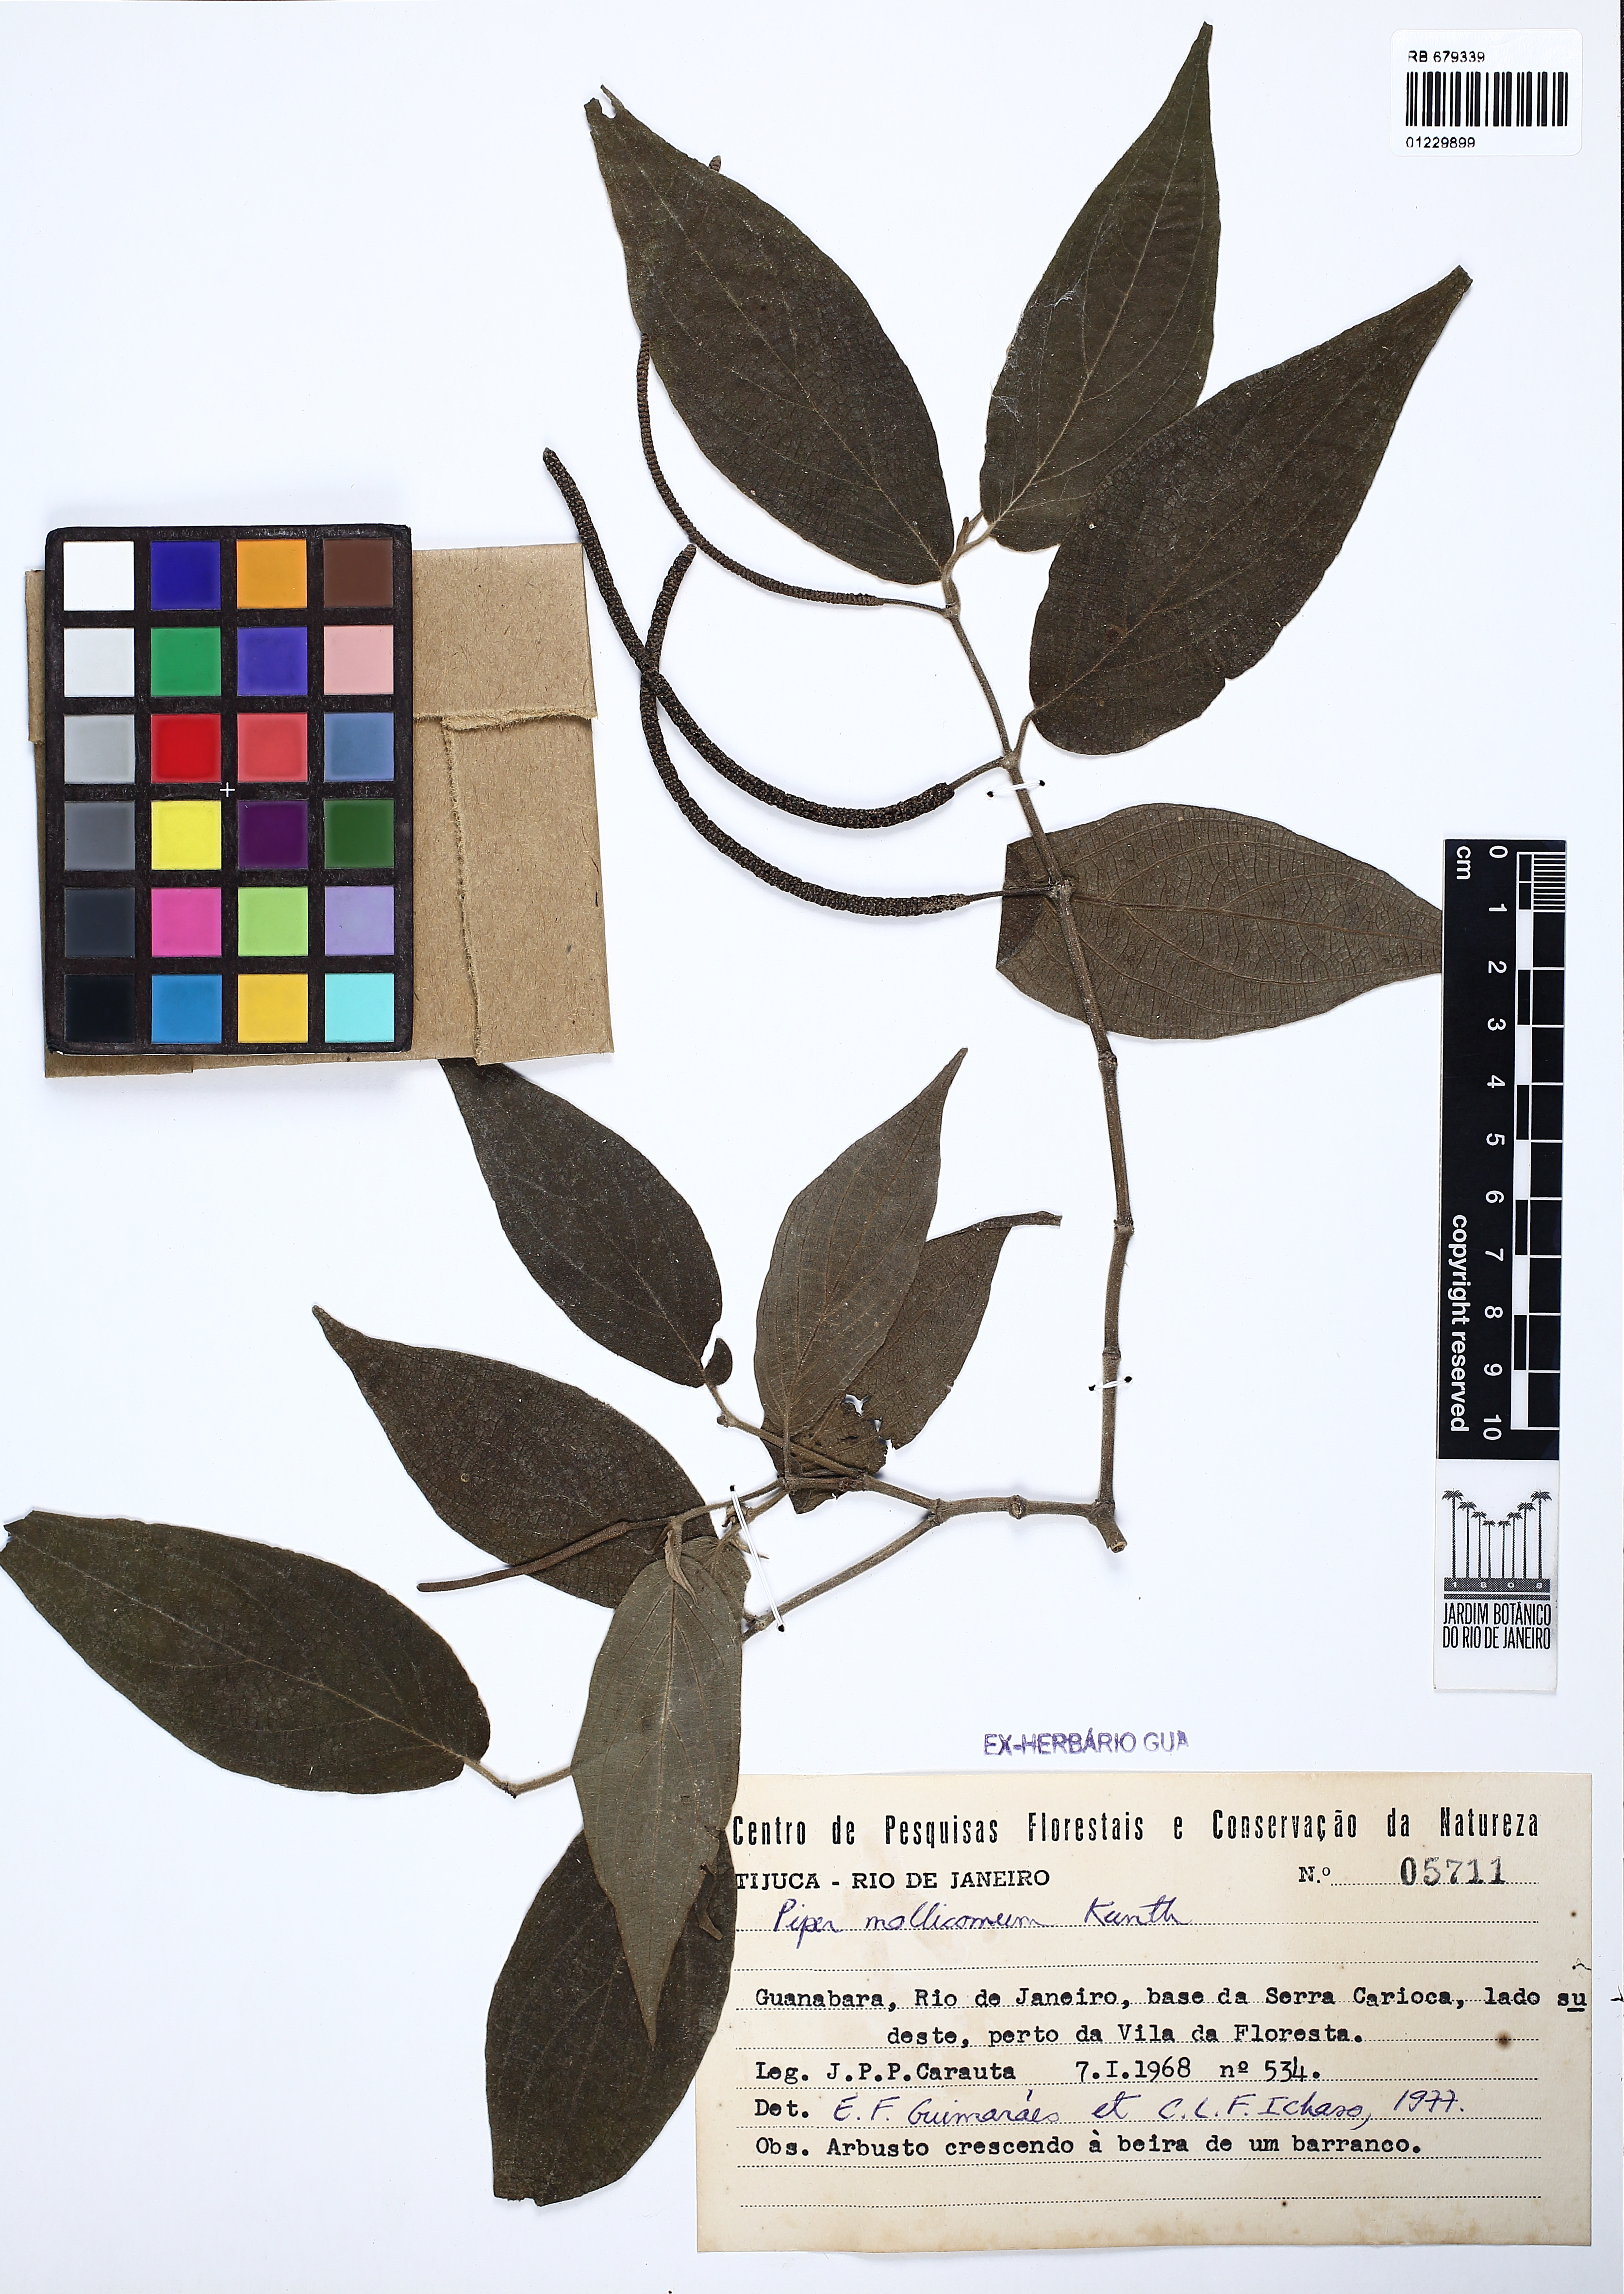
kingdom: Plantae
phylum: Tracheophyta
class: Magnoliopsida
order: Piperales
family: Piperaceae
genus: Piper
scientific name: Piper mollicomum
